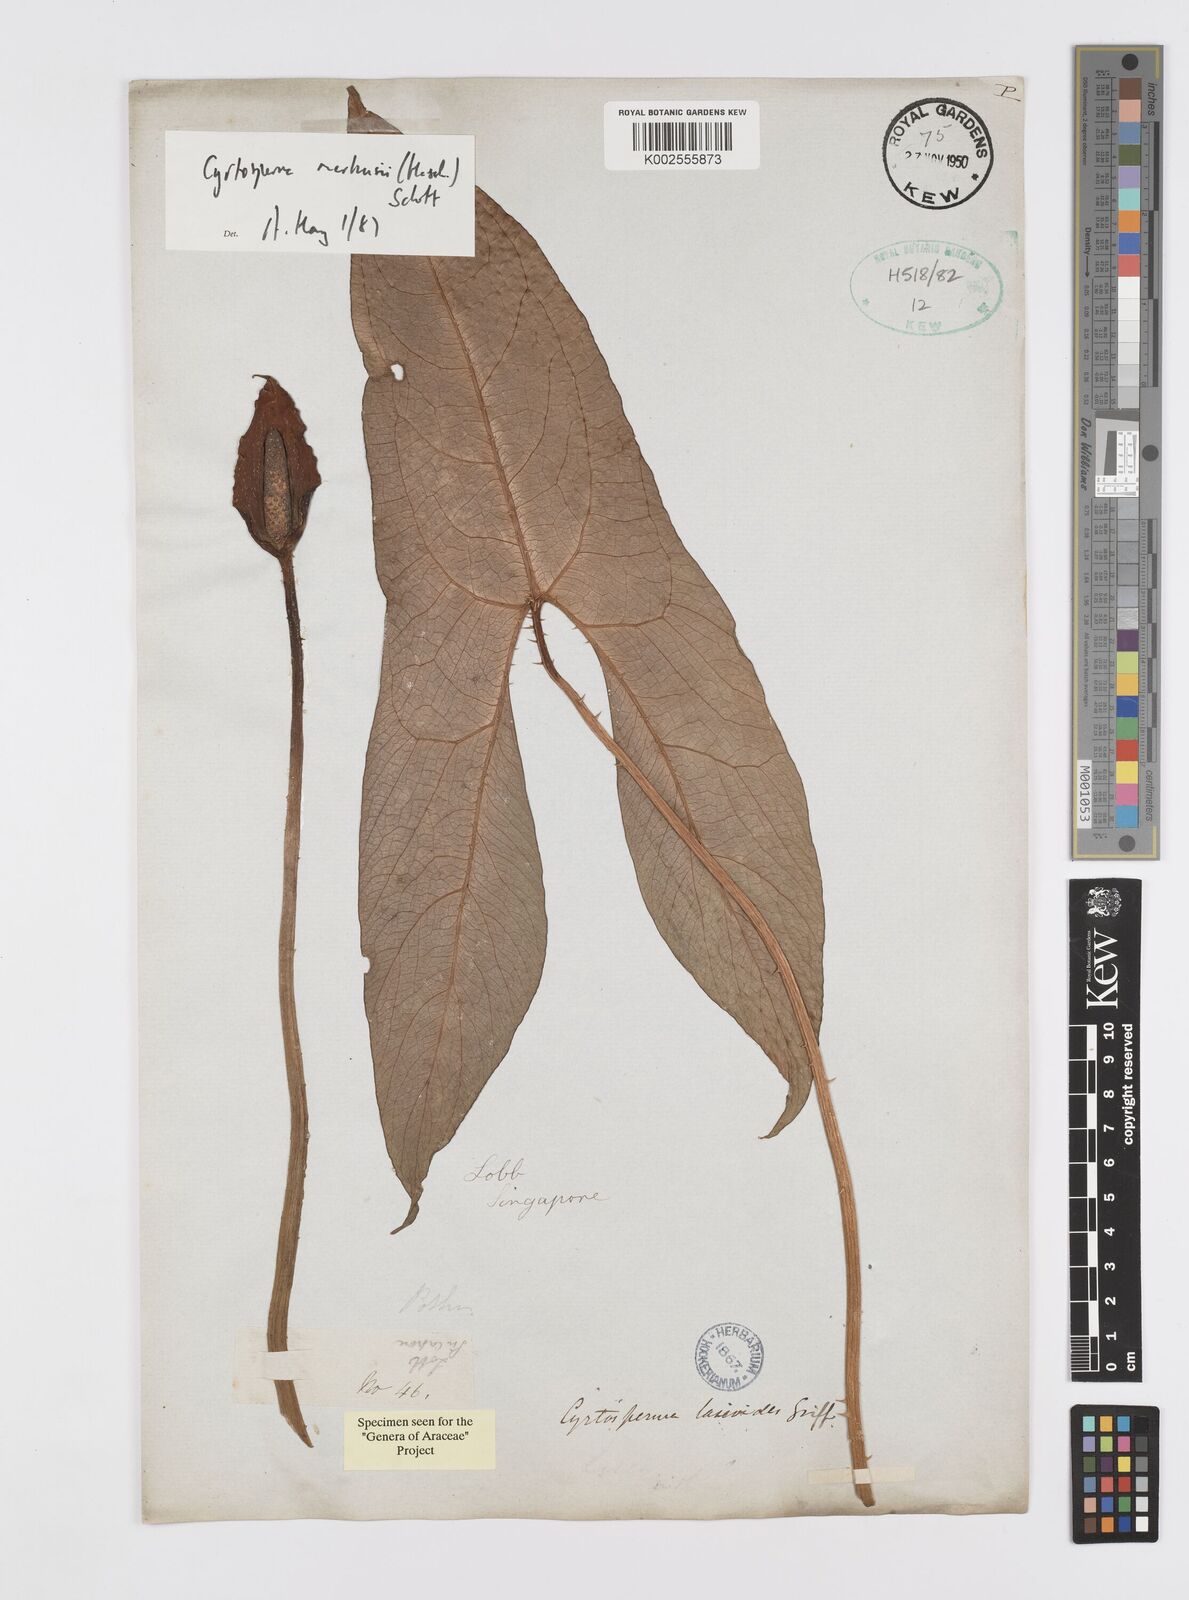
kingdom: Plantae
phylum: Tracheophyta
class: Liliopsida
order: Alismatales
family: Araceae
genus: Cyrtosperma
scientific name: Cyrtosperma merkusii
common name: Giant swamp-taro
